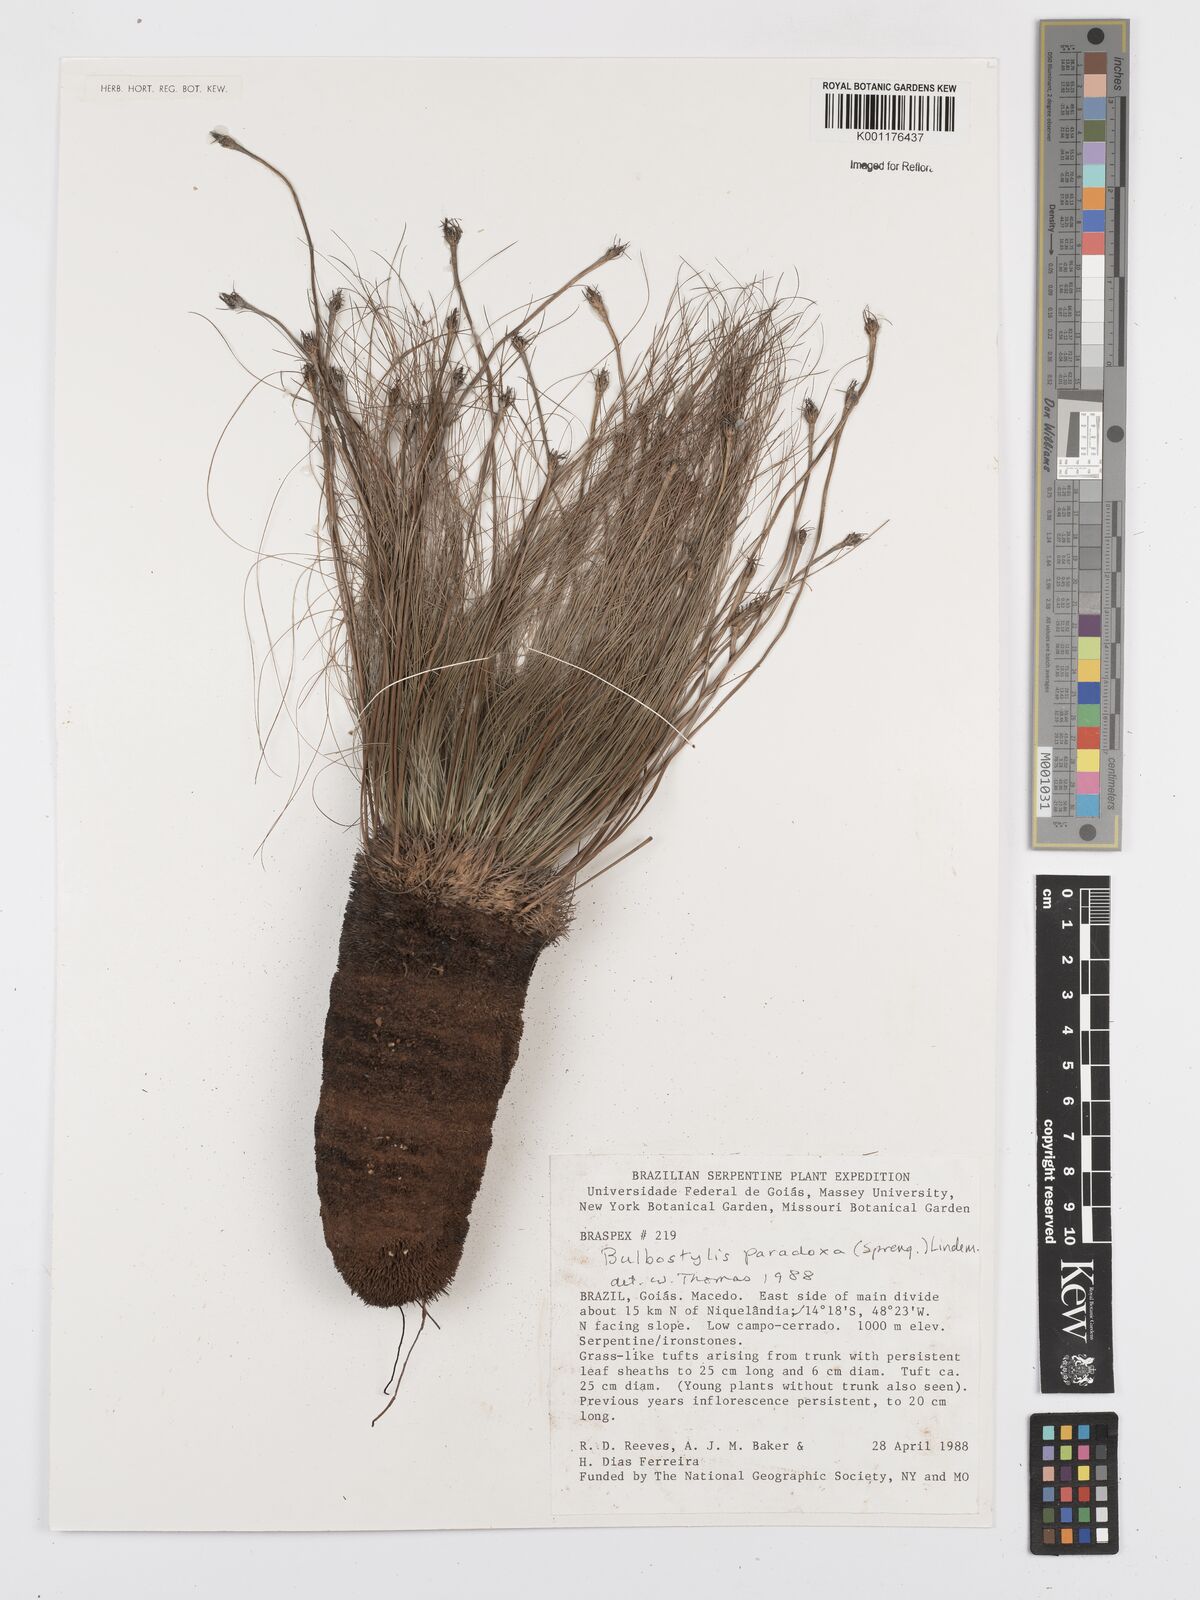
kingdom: Plantae
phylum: Tracheophyta
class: Liliopsida
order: Poales
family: Cyperaceae
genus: Bulbostylis
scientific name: Bulbostylis paradoxa
